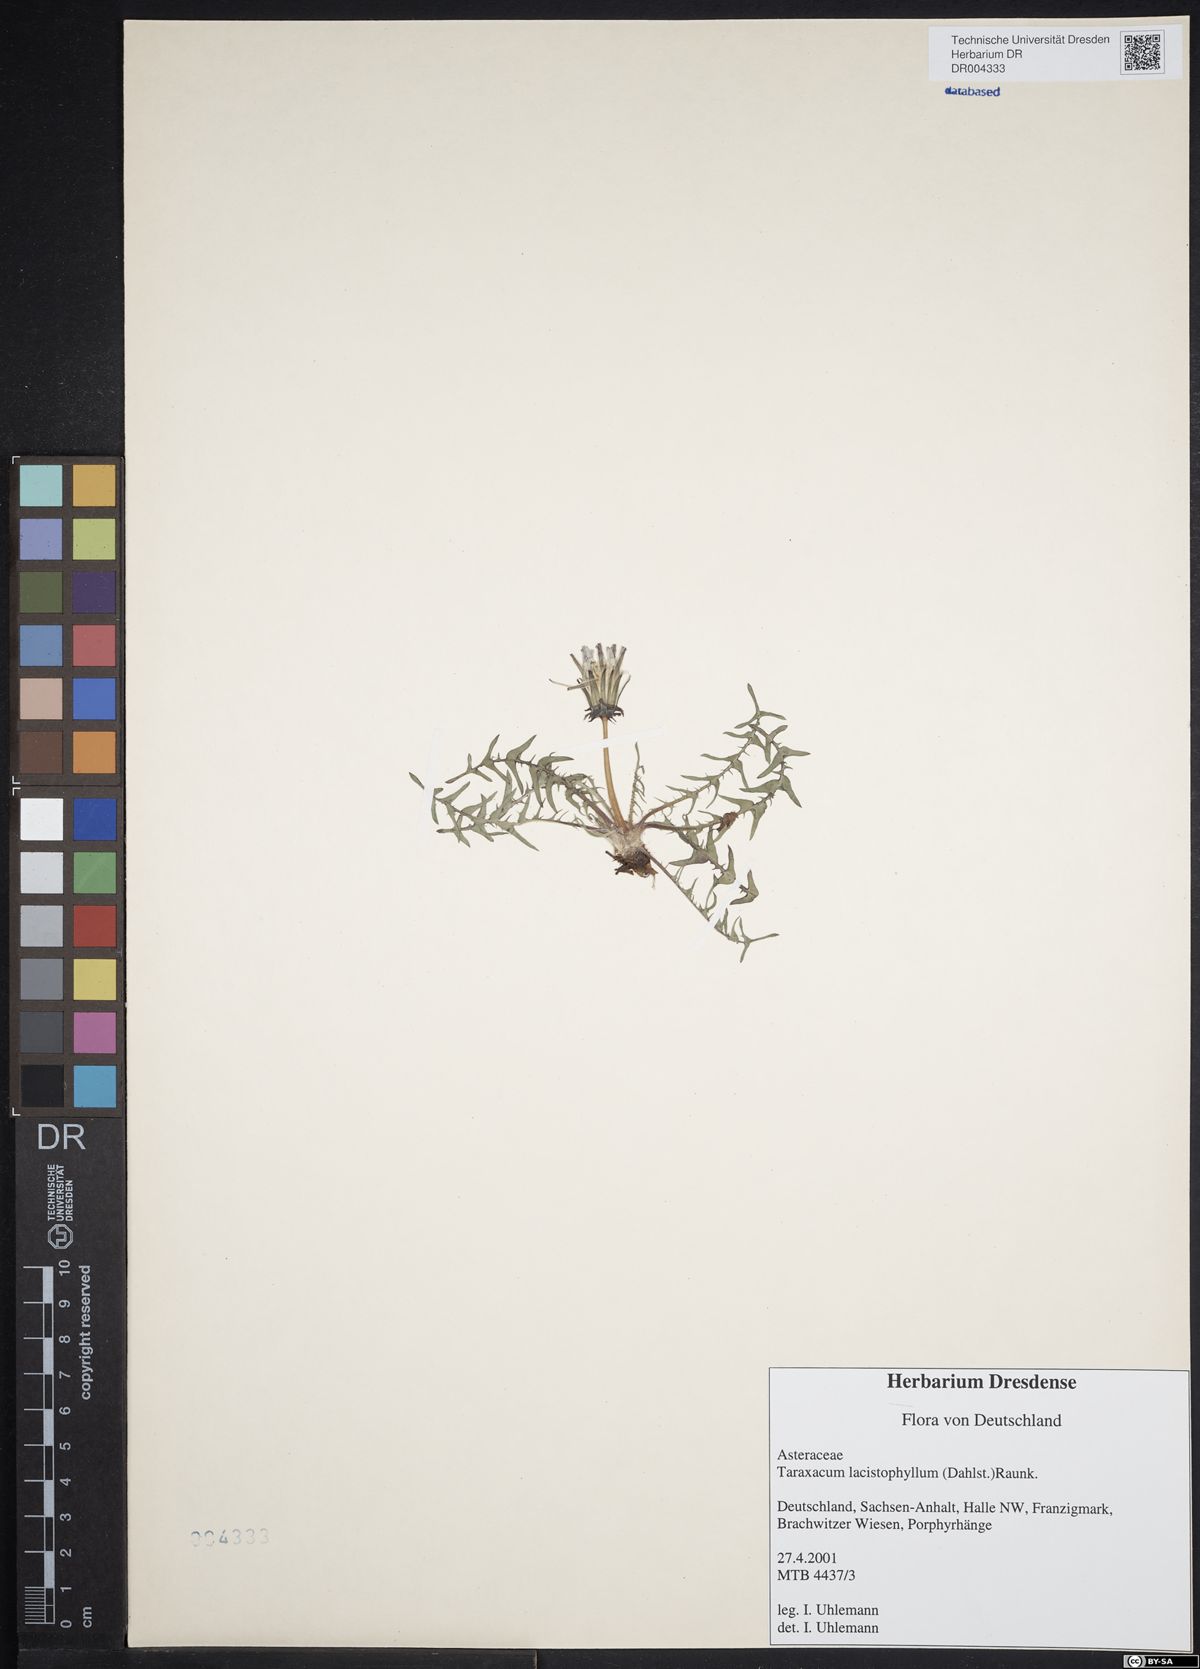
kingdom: Plantae
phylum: Tracheophyta
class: Magnoliopsida
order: Asterales
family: Asteraceae
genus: Taraxacum
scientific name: Taraxacum lacistophyllum
